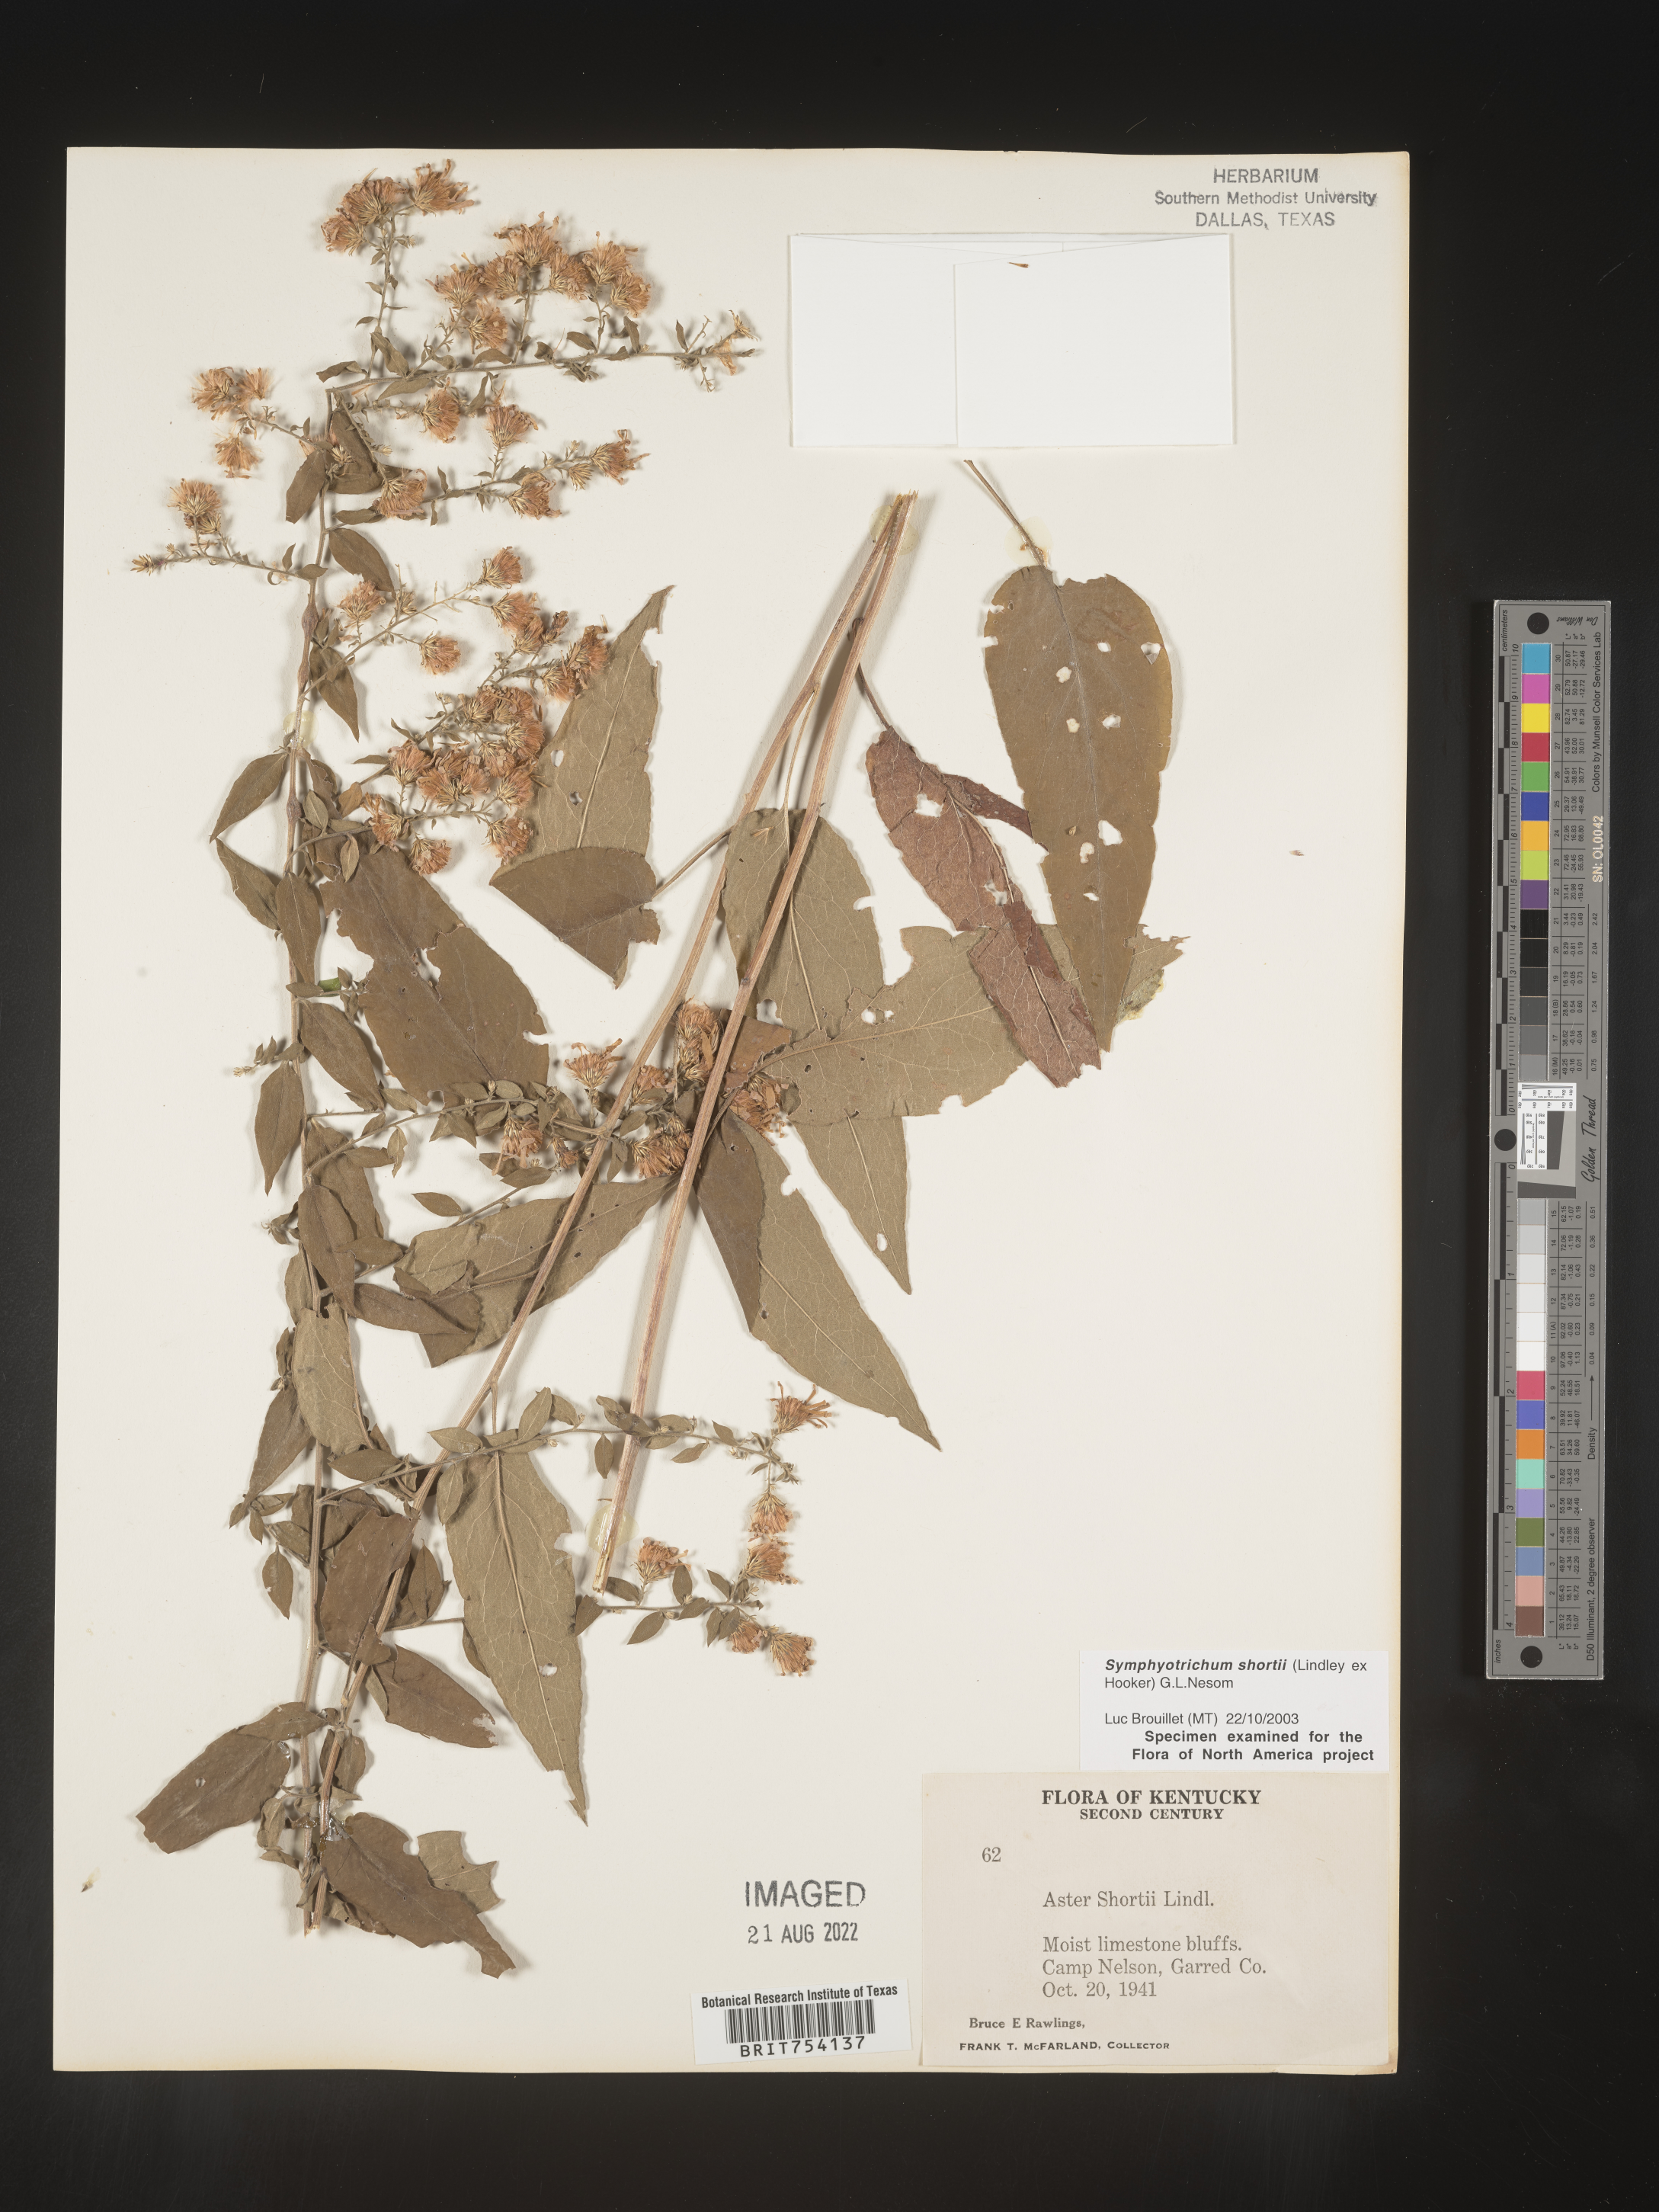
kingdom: Plantae
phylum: Tracheophyta
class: Magnoliopsida
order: Asterales
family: Asteraceae
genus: Symphyotrichum
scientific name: Symphyotrichum shortii
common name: Short's aster
